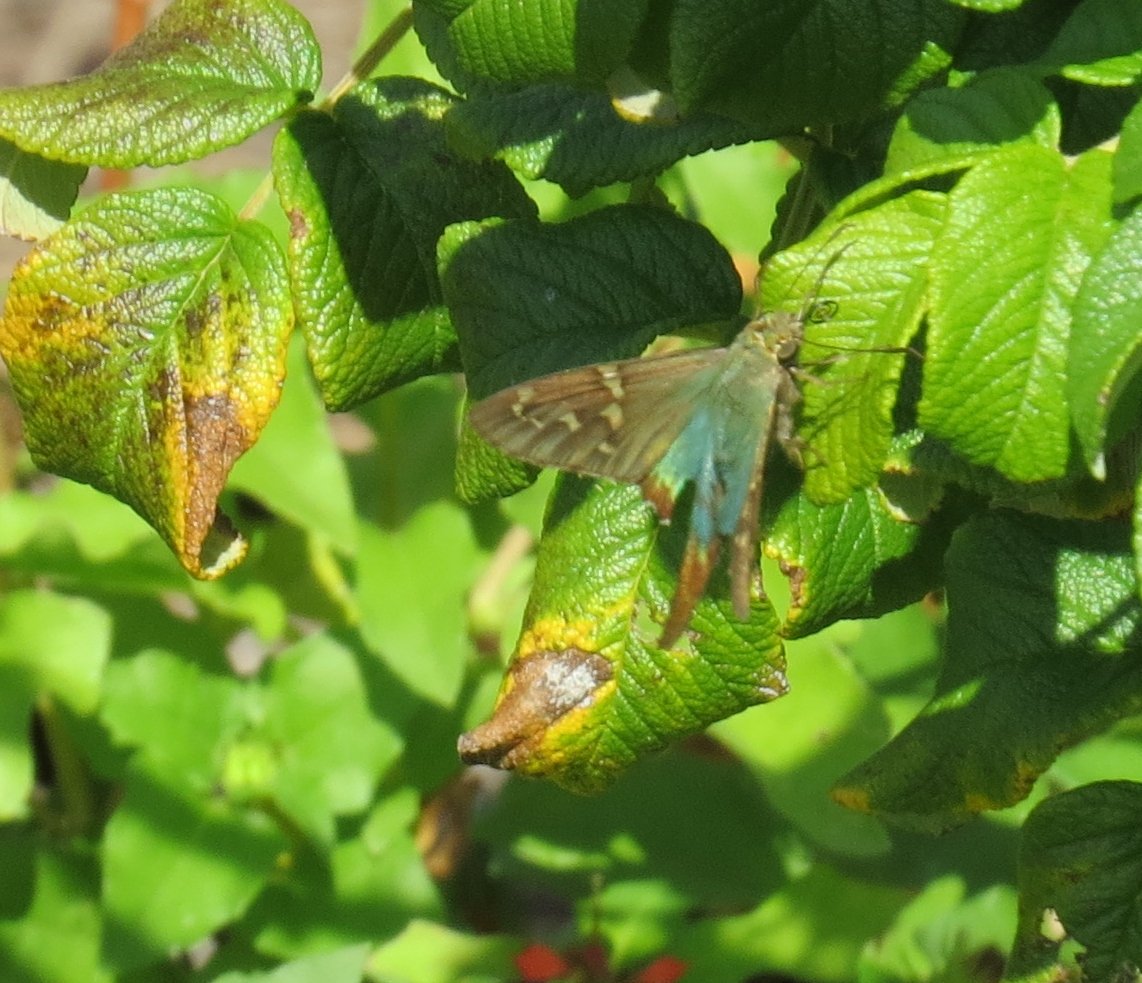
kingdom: Animalia
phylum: Arthropoda
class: Insecta
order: Lepidoptera
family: Hesperiidae
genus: Urbanus
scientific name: Urbanus proteus
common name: Long-tailed Skipper
